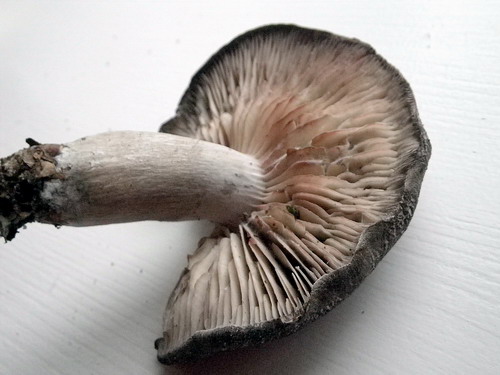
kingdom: Fungi
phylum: Basidiomycota
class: Agaricomycetes
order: Agaricales
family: Tricholomataceae
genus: Tricholoma
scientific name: Tricholoma orirubens
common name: rødbladet ridderhat
